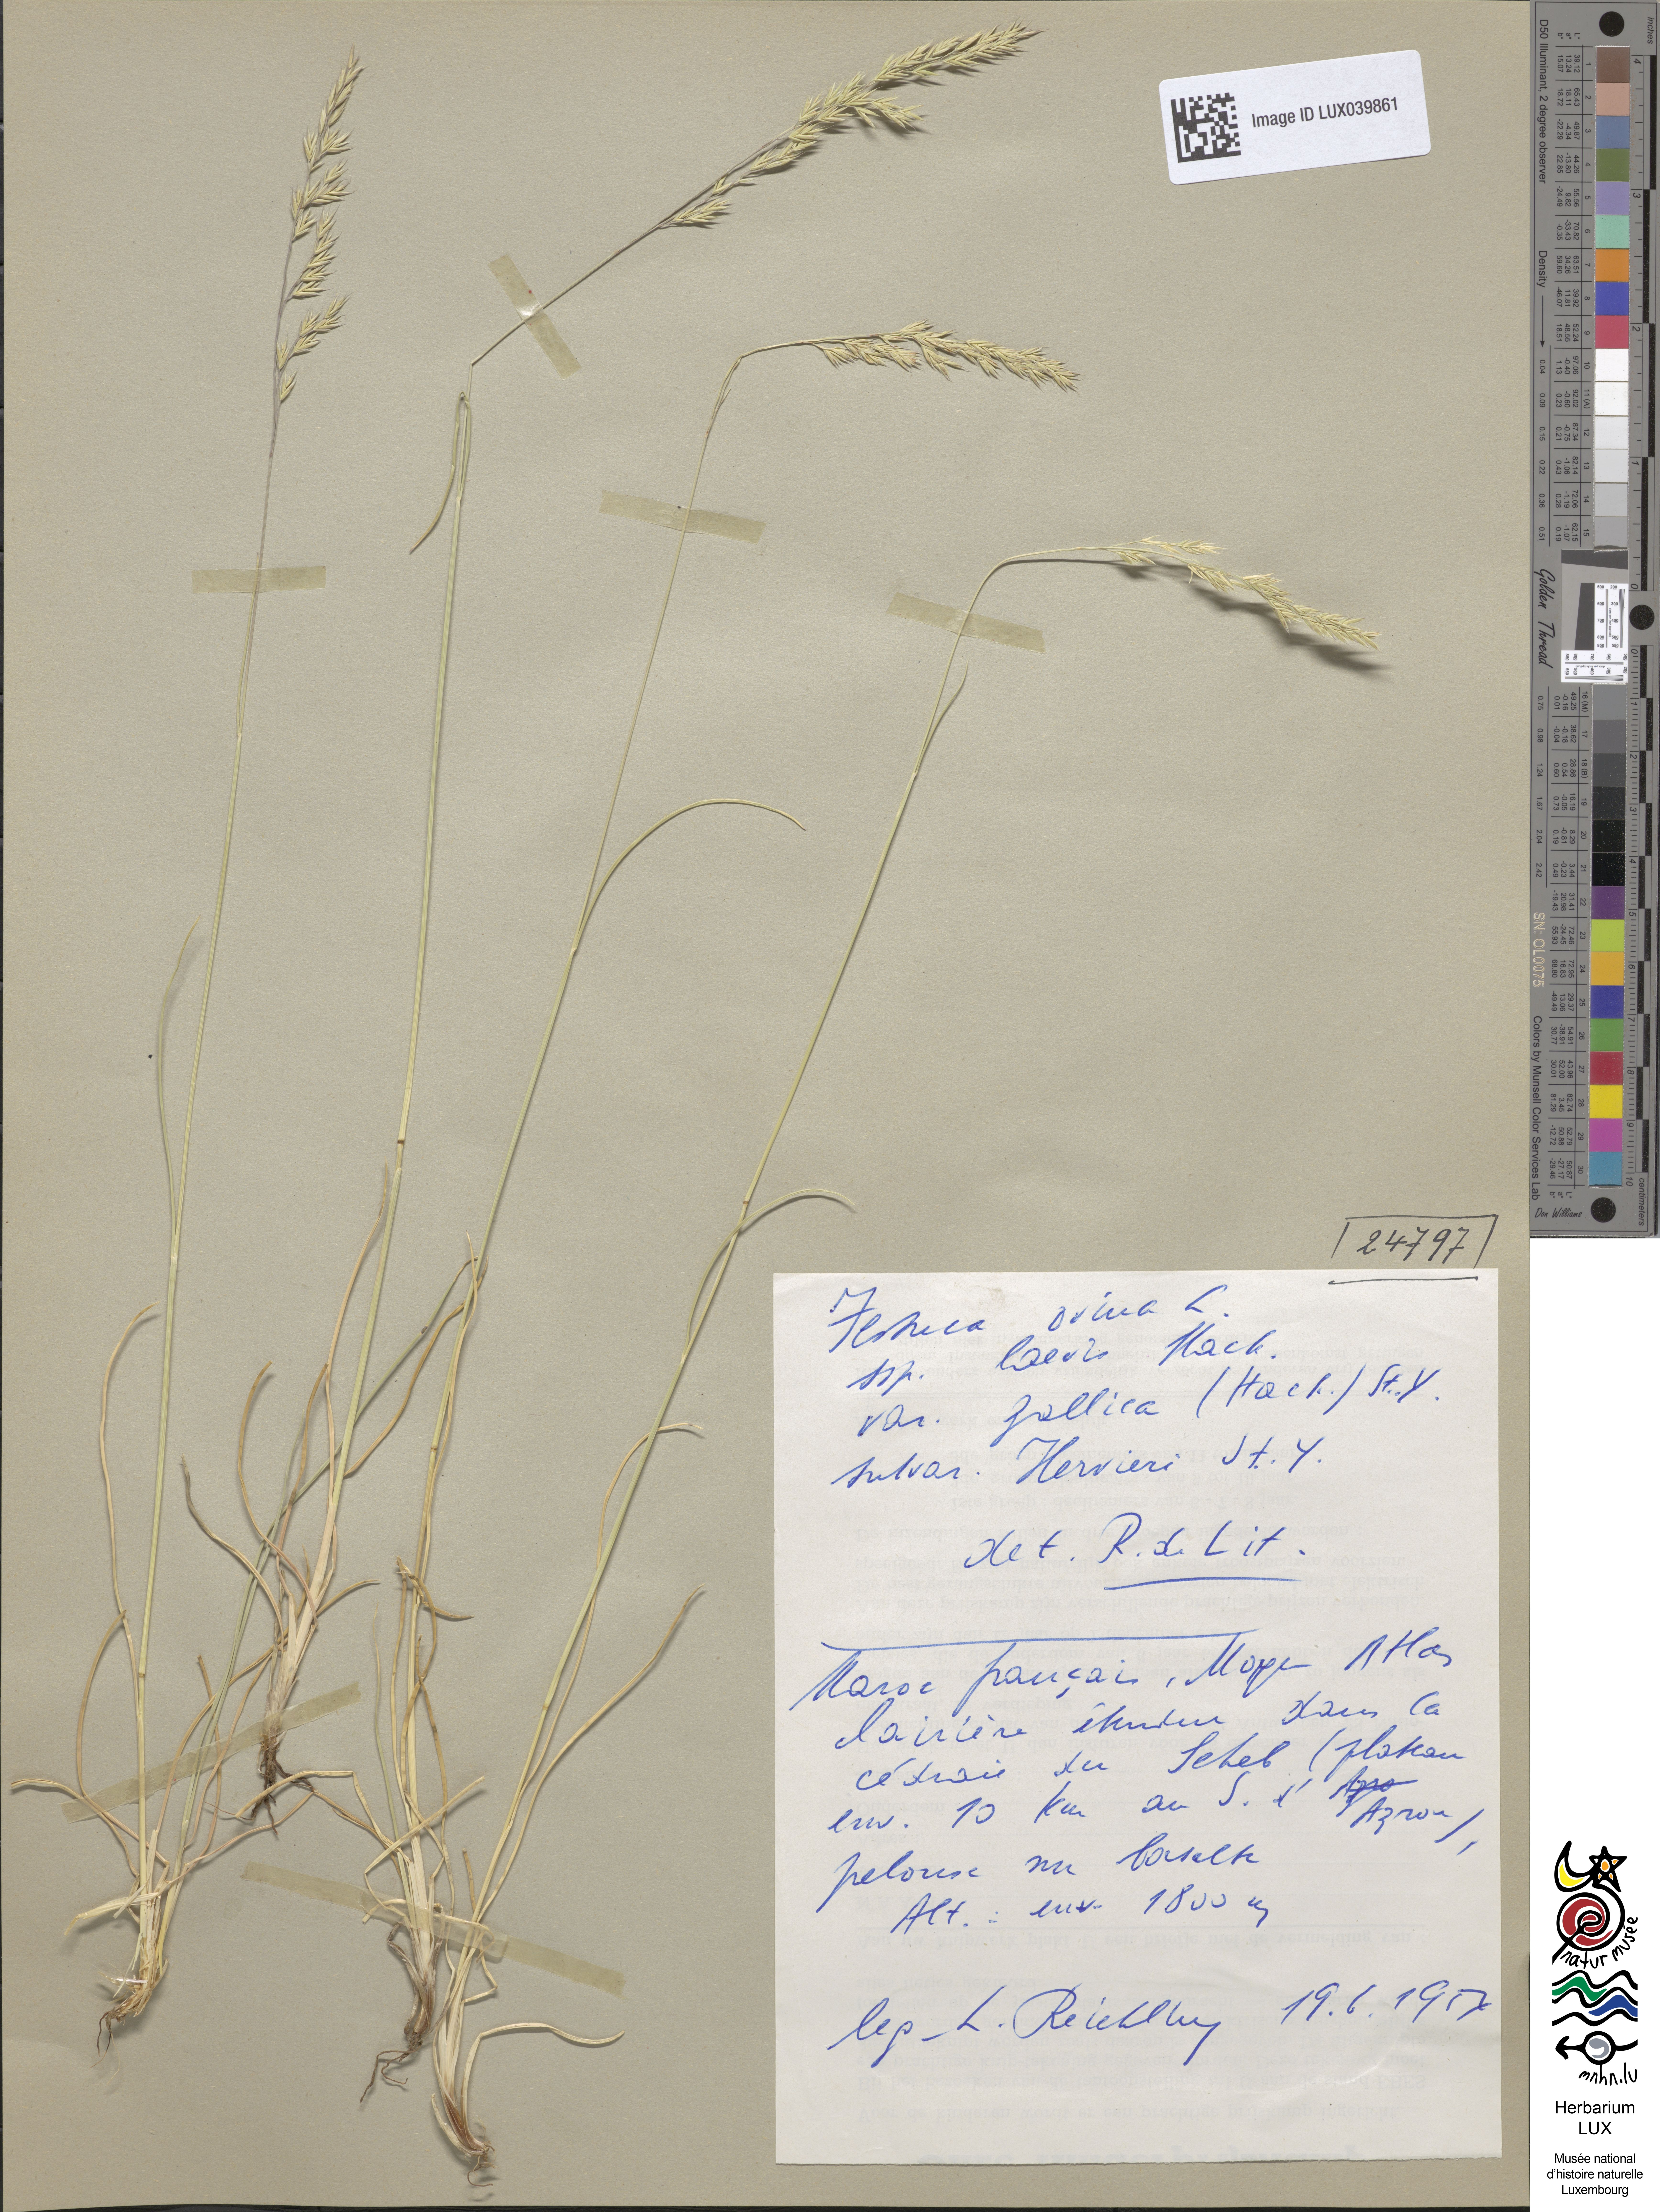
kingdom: Plantae
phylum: Tracheophyta
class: Liliopsida
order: Poales
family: Poaceae
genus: Festuca
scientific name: Festuca ovina
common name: Sheep fescue
